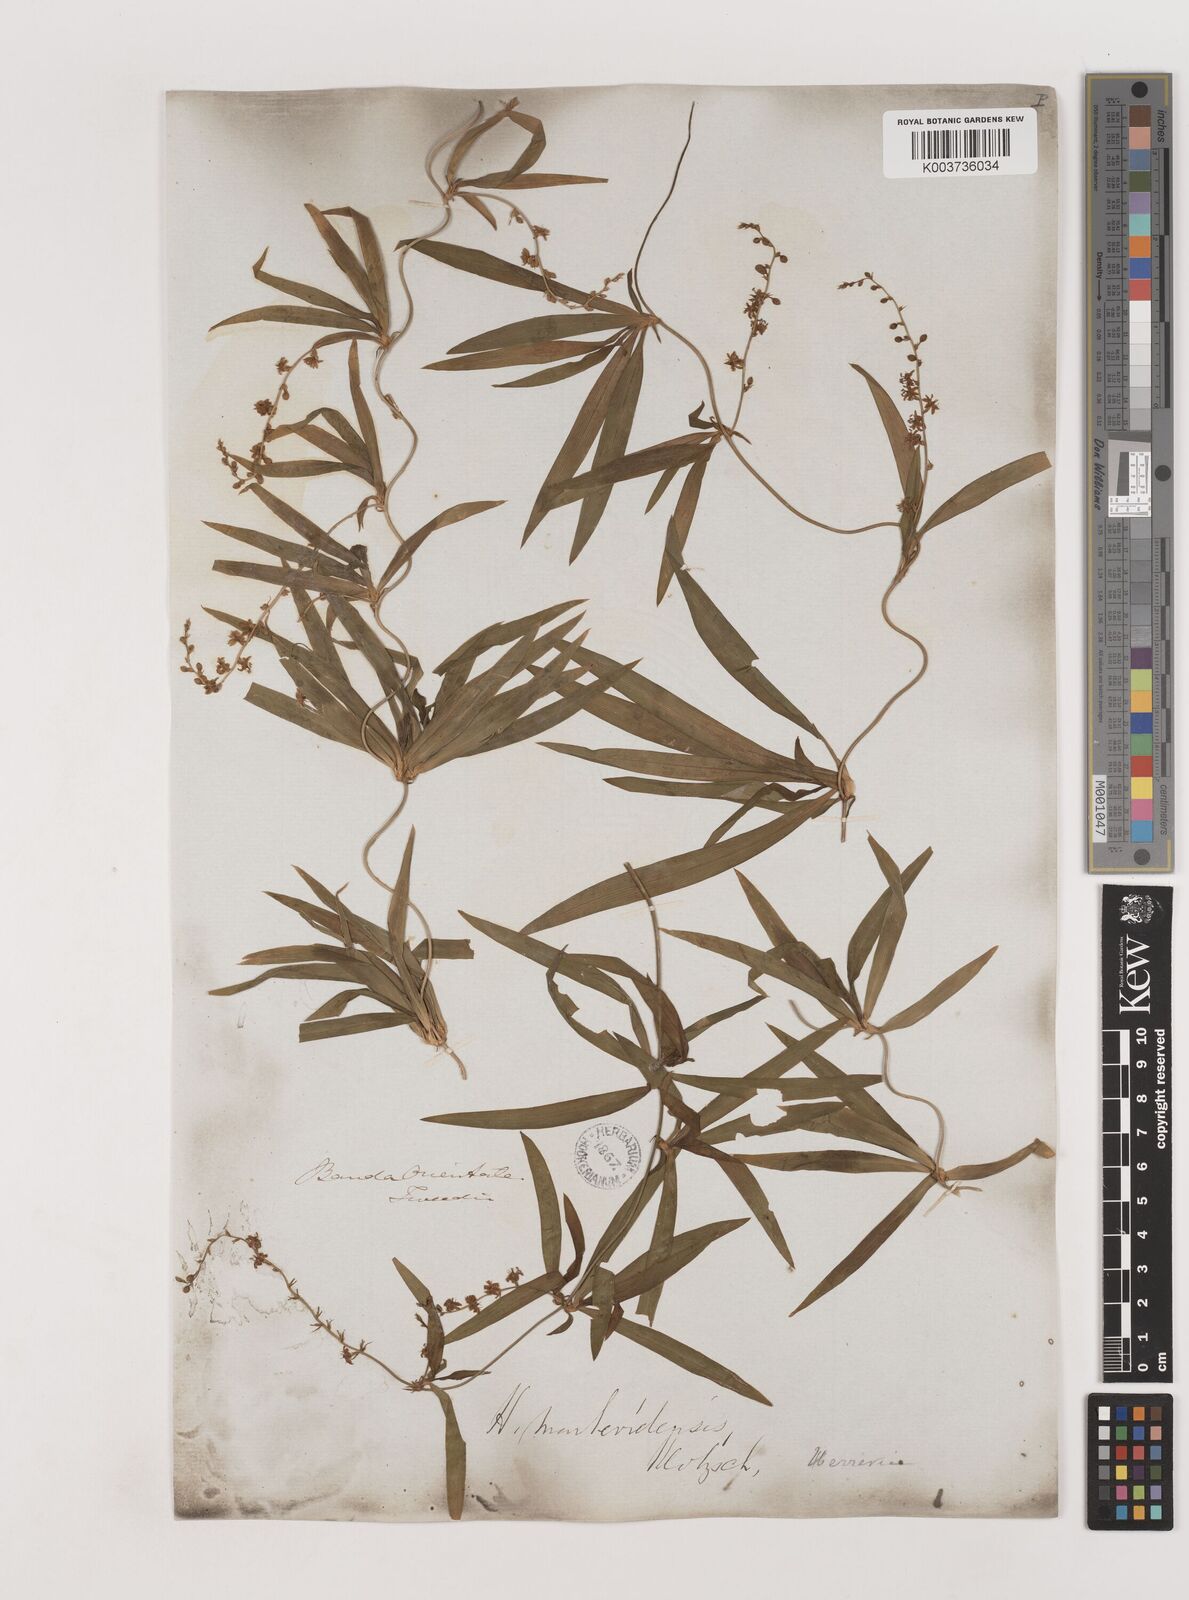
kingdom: Plantae
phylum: Tracheophyta
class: Liliopsida
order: Asparagales
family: Asparagaceae
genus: Herreria
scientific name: Herreria montevidensis
